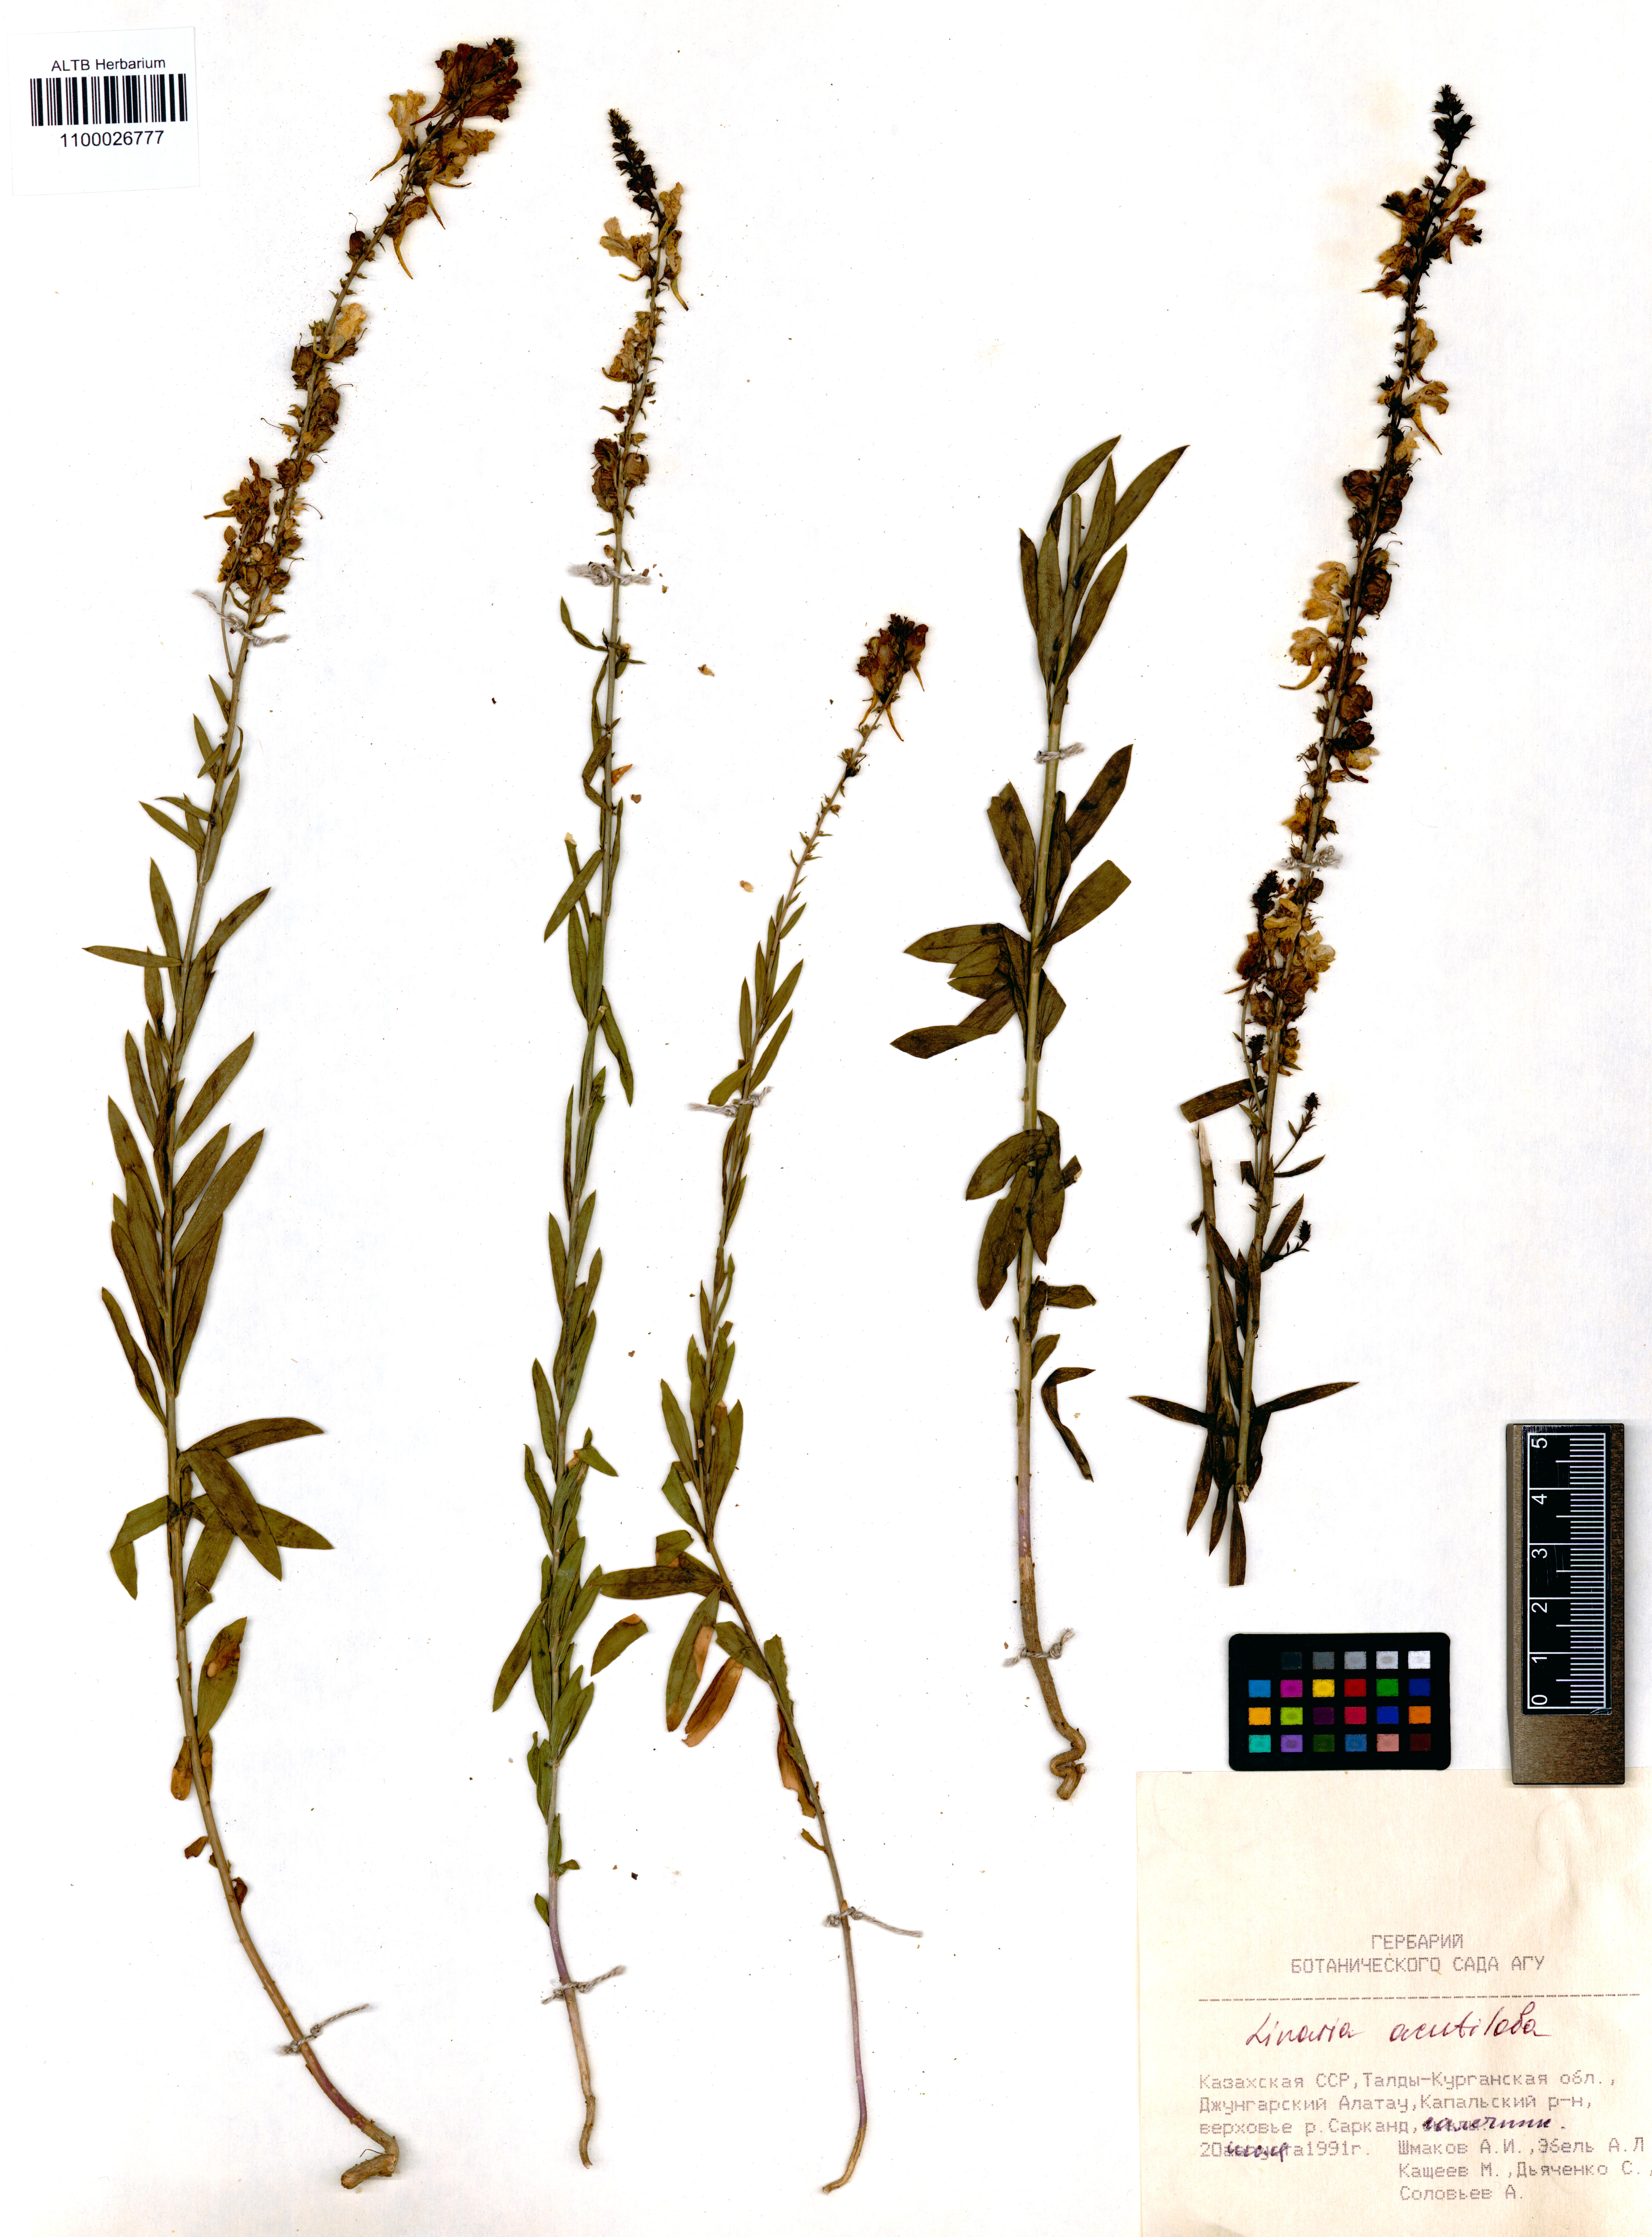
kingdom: Plantae
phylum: Tracheophyta
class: Magnoliopsida
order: Lamiales
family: Plantaginaceae
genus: Linaria
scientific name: Linaria acutiloba
